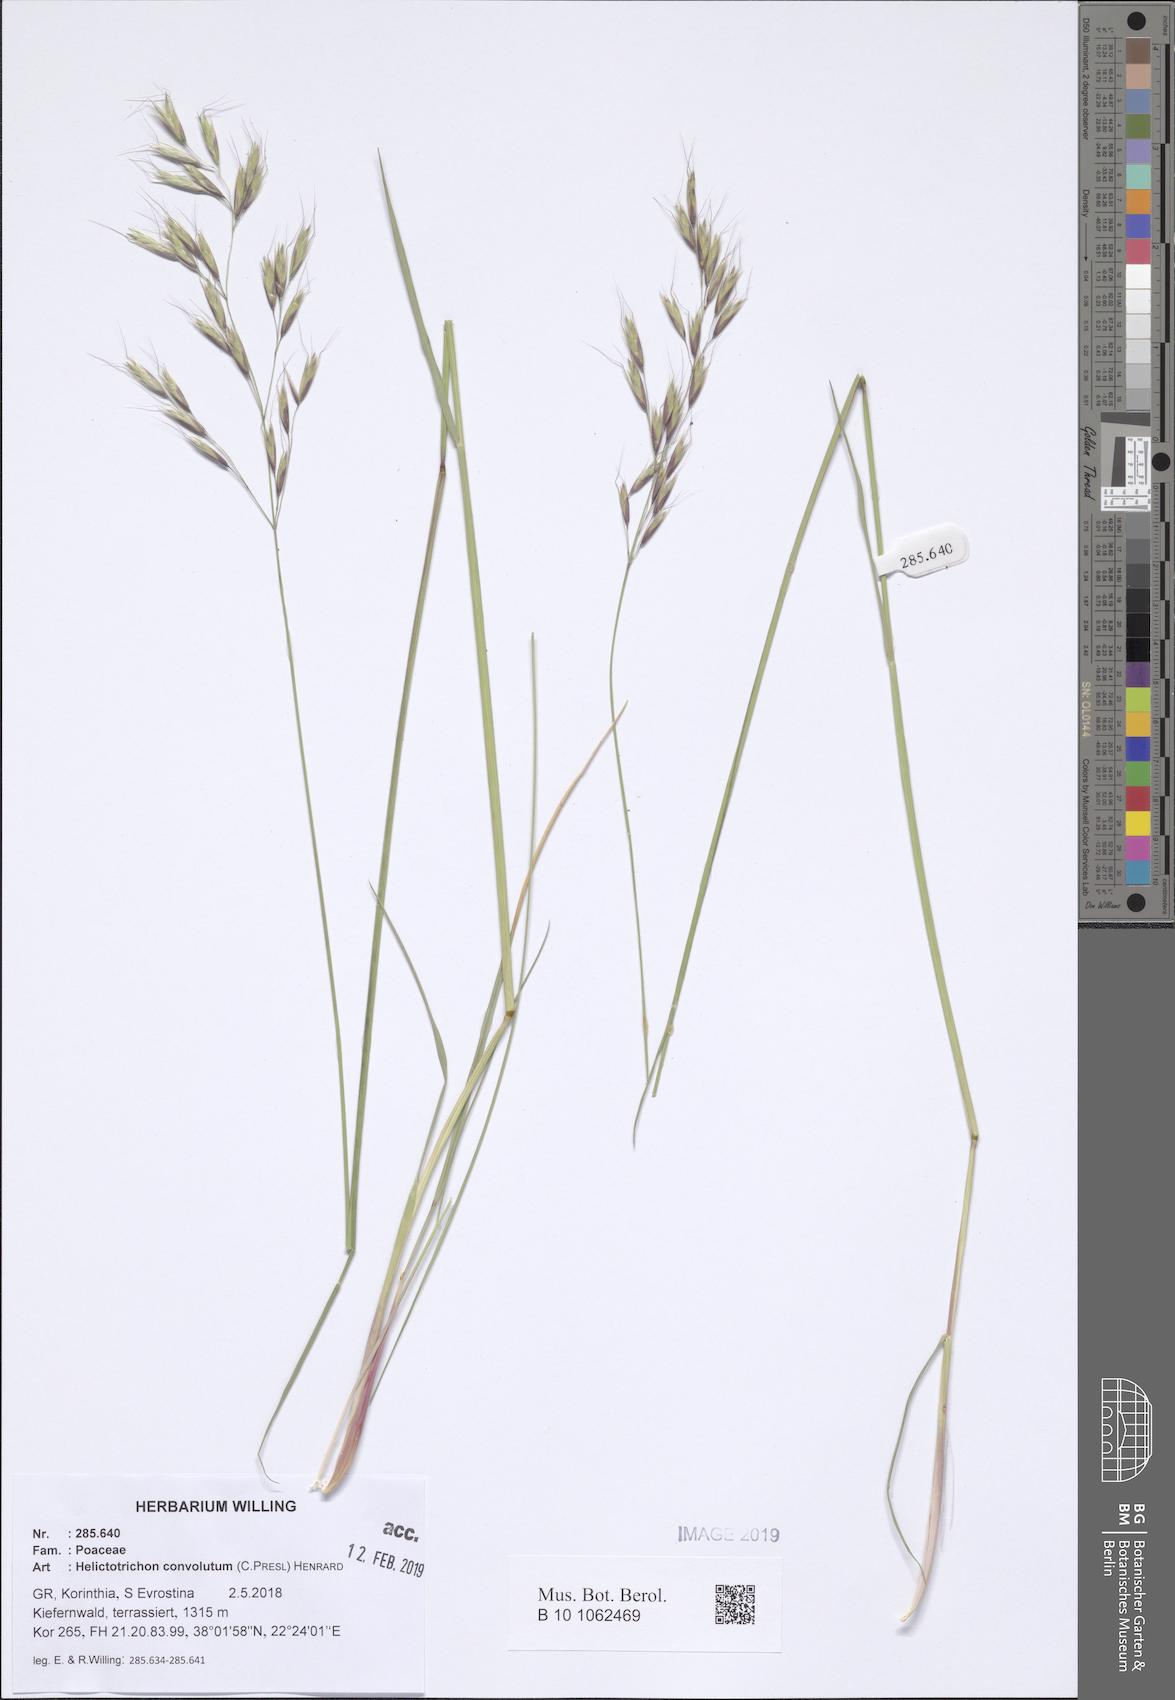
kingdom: Plantae
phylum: Tracheophyta
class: Liliopsida
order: Poales
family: Poaceae
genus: Helictotrichon
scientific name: Helictotrichon convolutum
